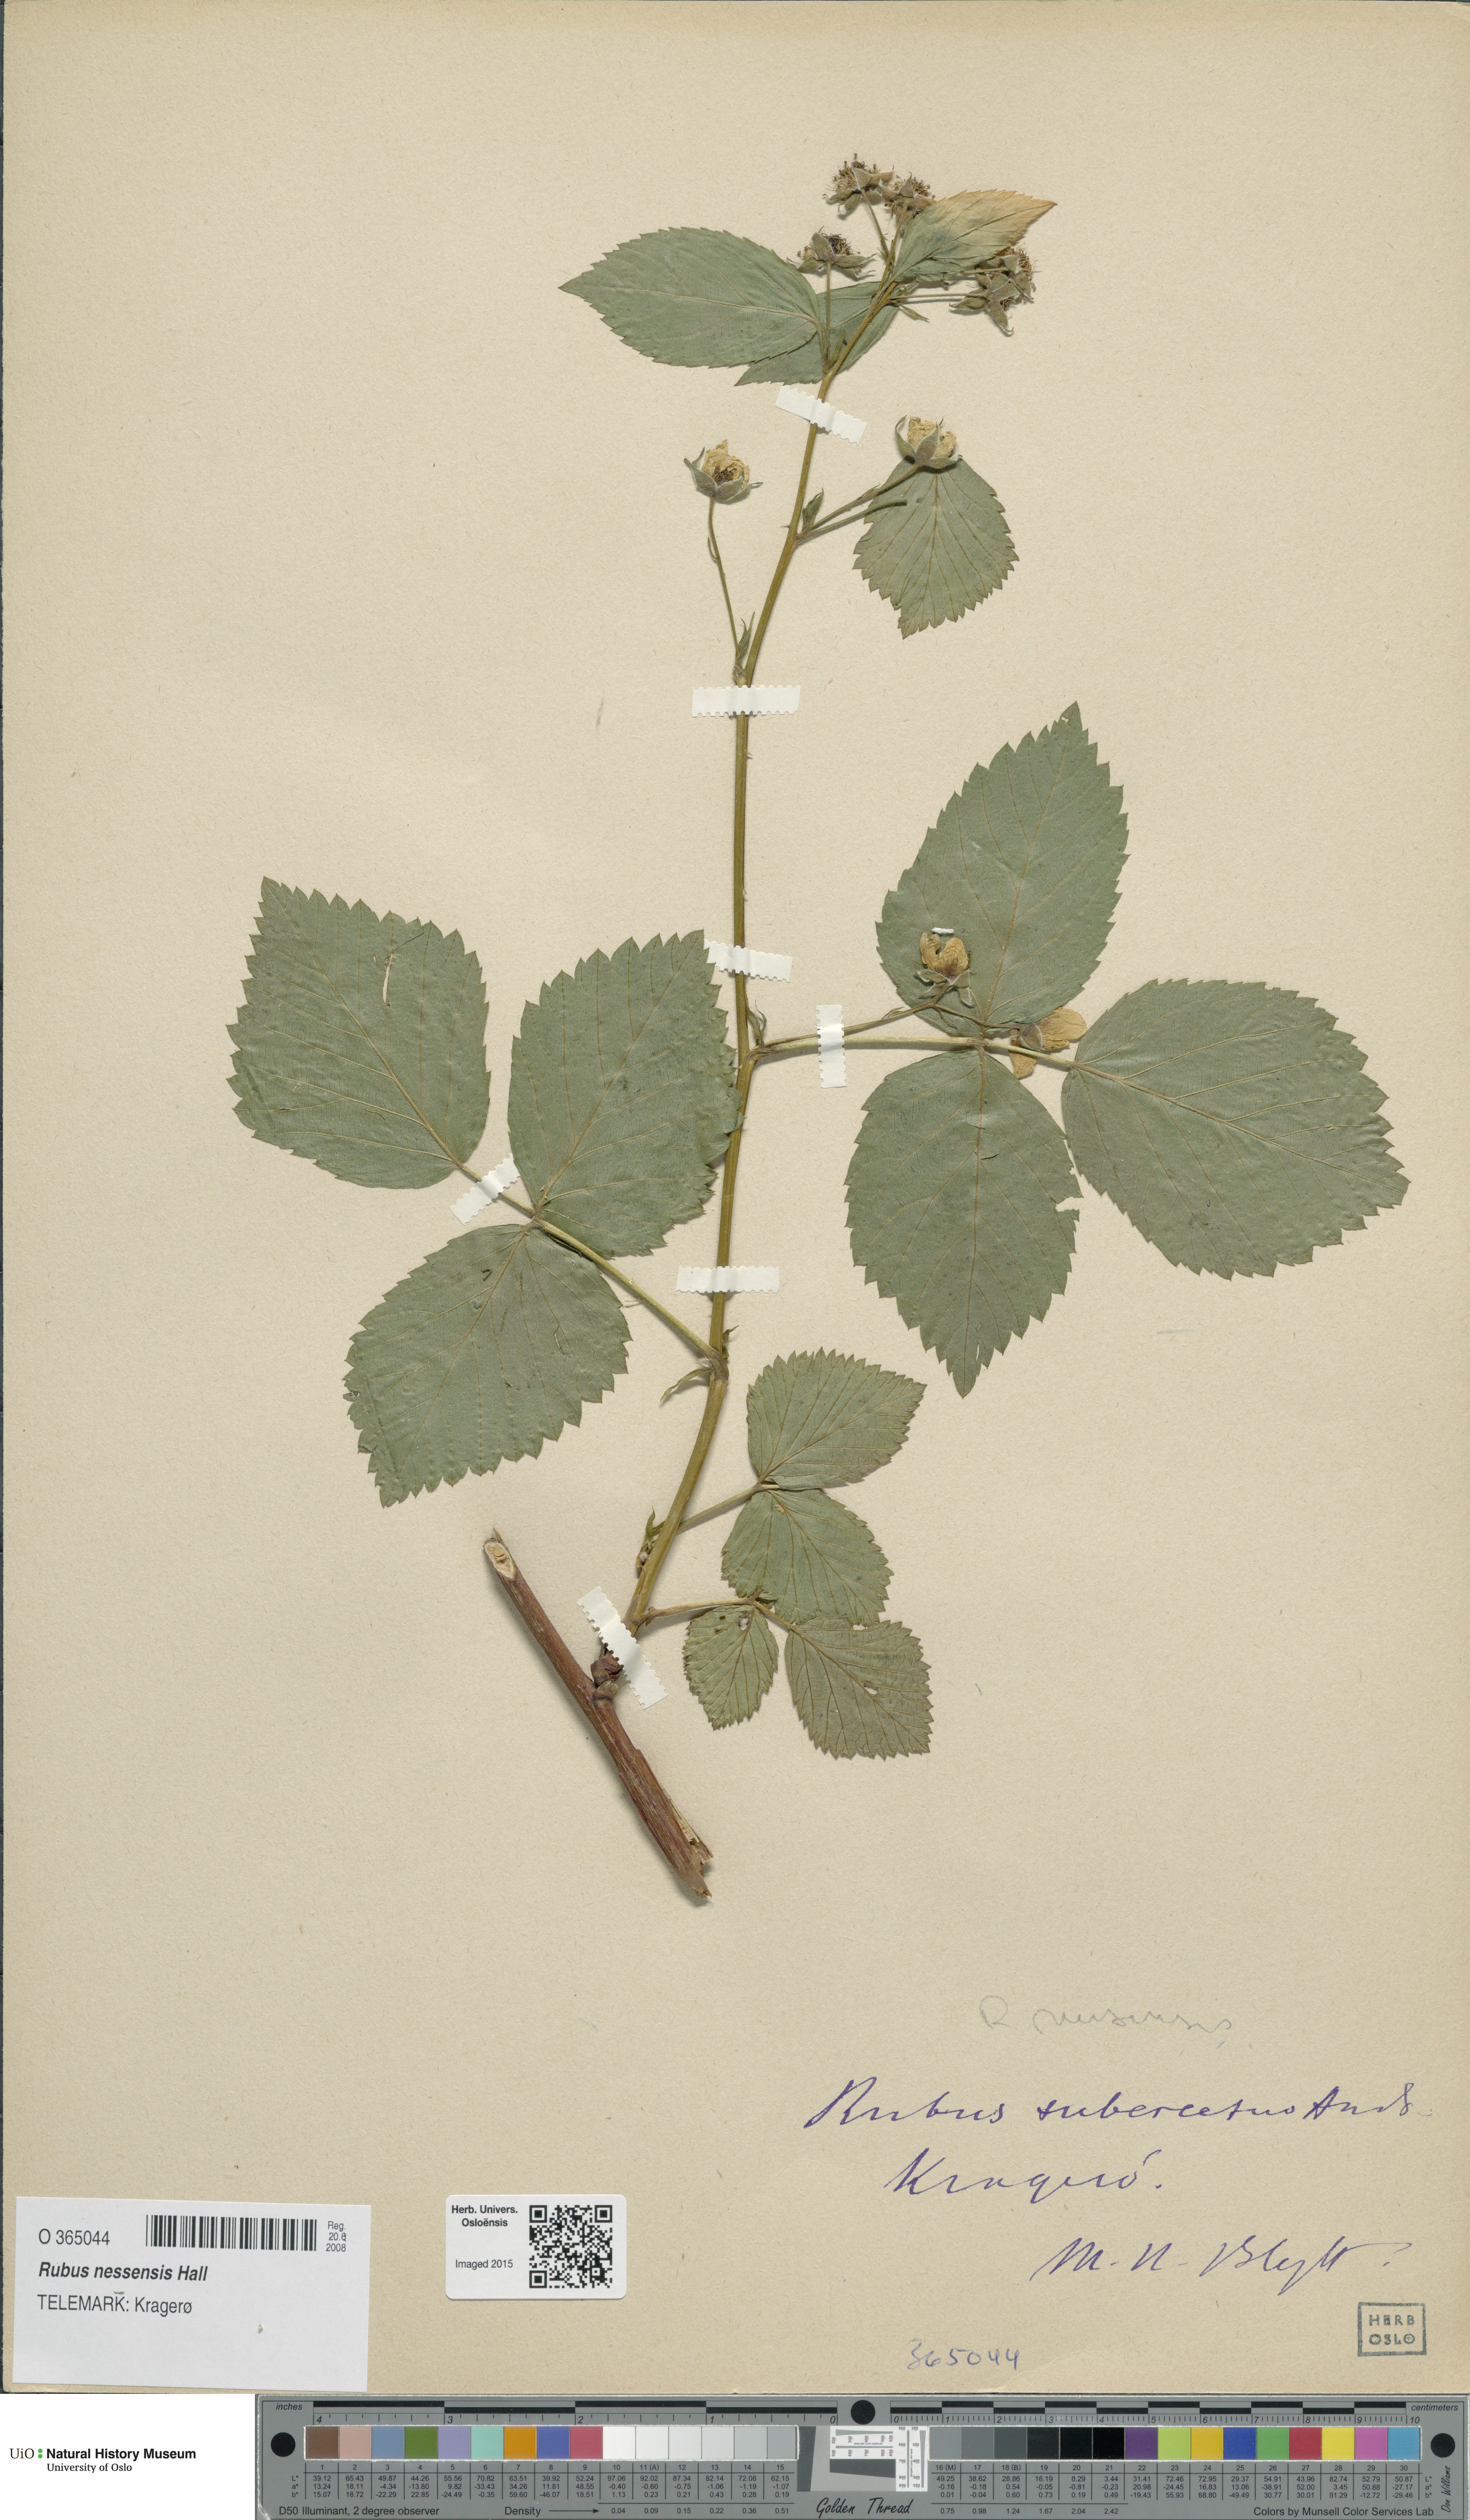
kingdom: Plantae
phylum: Tracheophyta
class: Magnoliopsida
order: Rosales
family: Rosaceae
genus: Rubus
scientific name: Rubus polonicus
